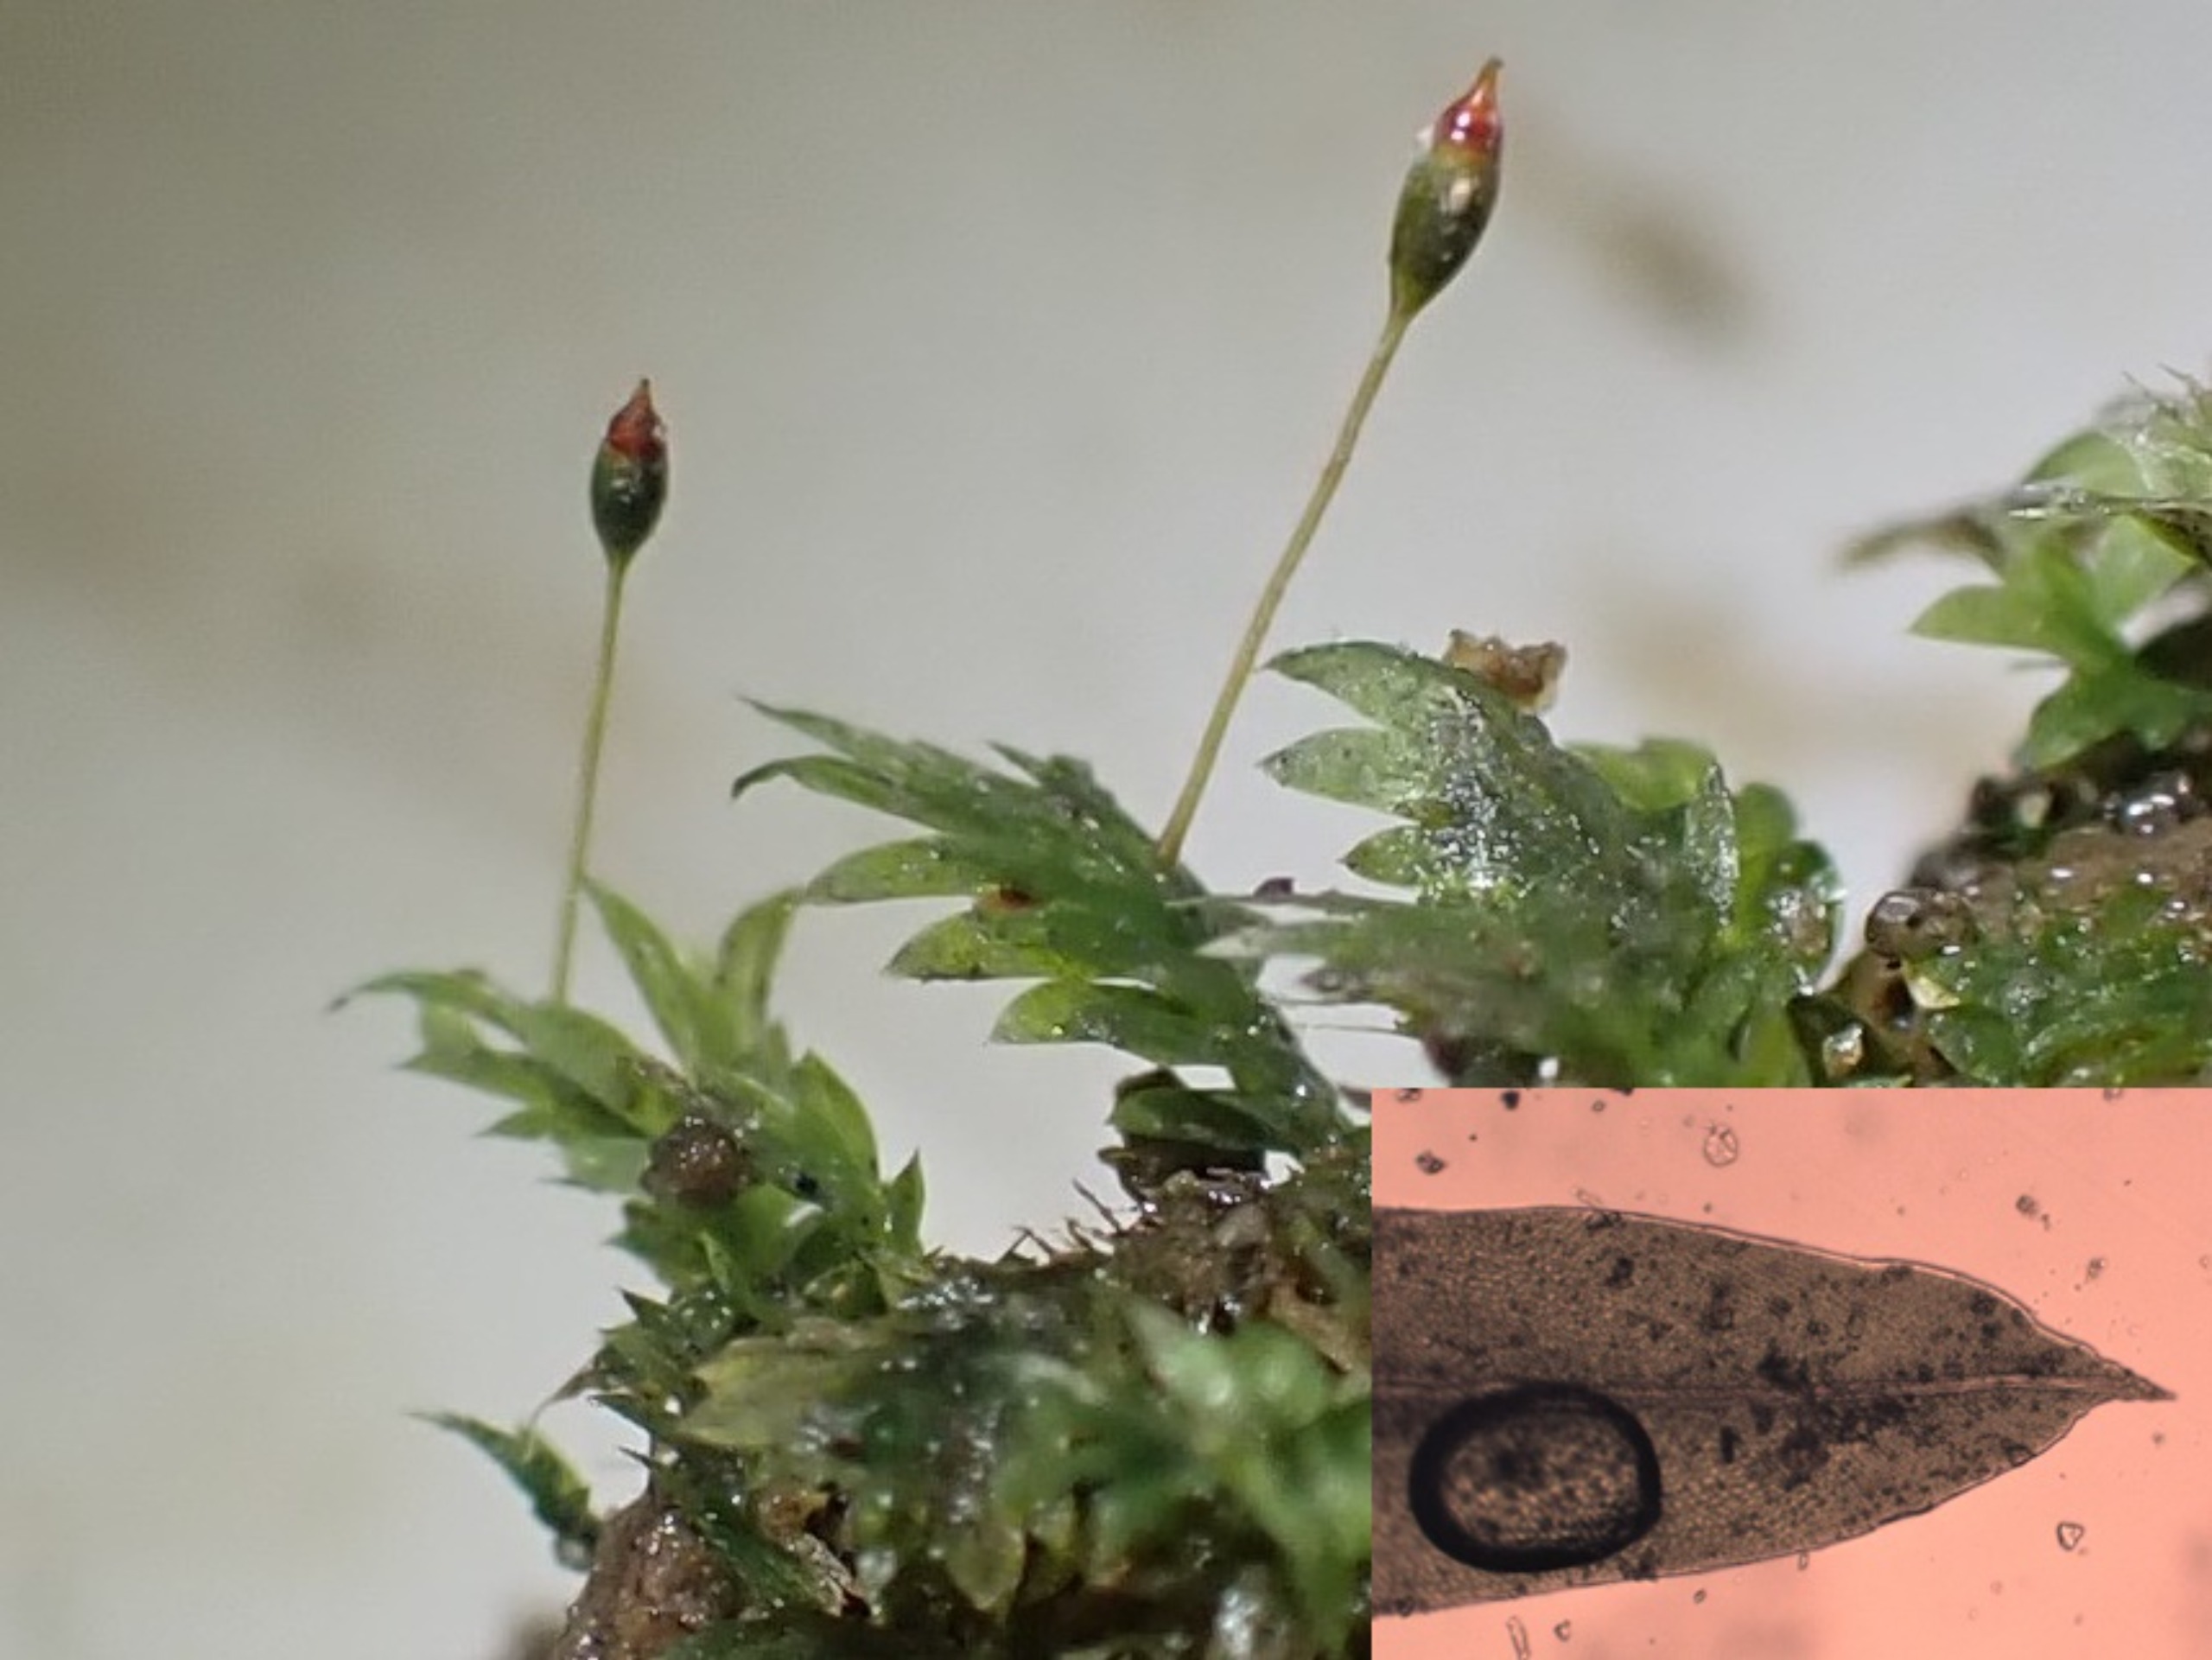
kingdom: Plantae
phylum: Bryophyta
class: Bryopsida
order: Dicranales
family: Fissidentaceae
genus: Fissidens
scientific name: Fissidens bryoides
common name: Top-rademos
